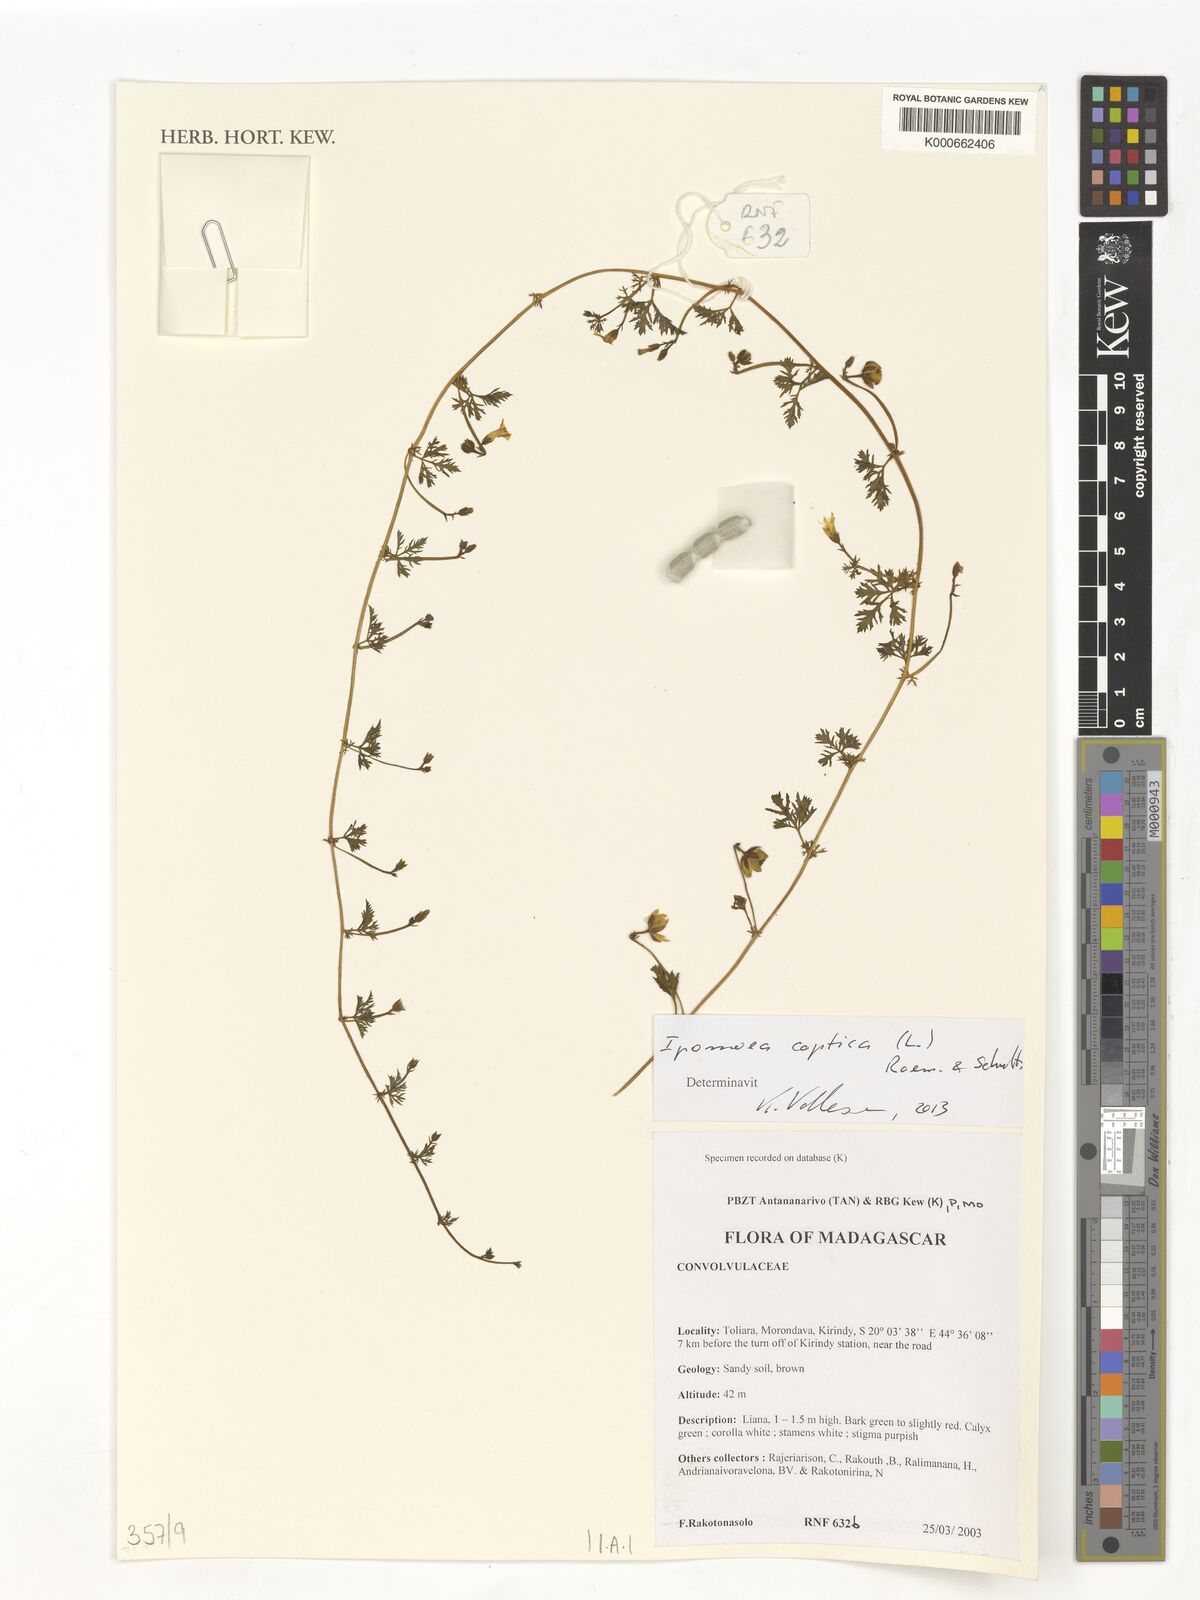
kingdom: Plantae
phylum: Tracheophyta
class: Magnoliopsida
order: Solanales
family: Convolvulaceae
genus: Ipomoea
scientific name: Ipomoea coptica
